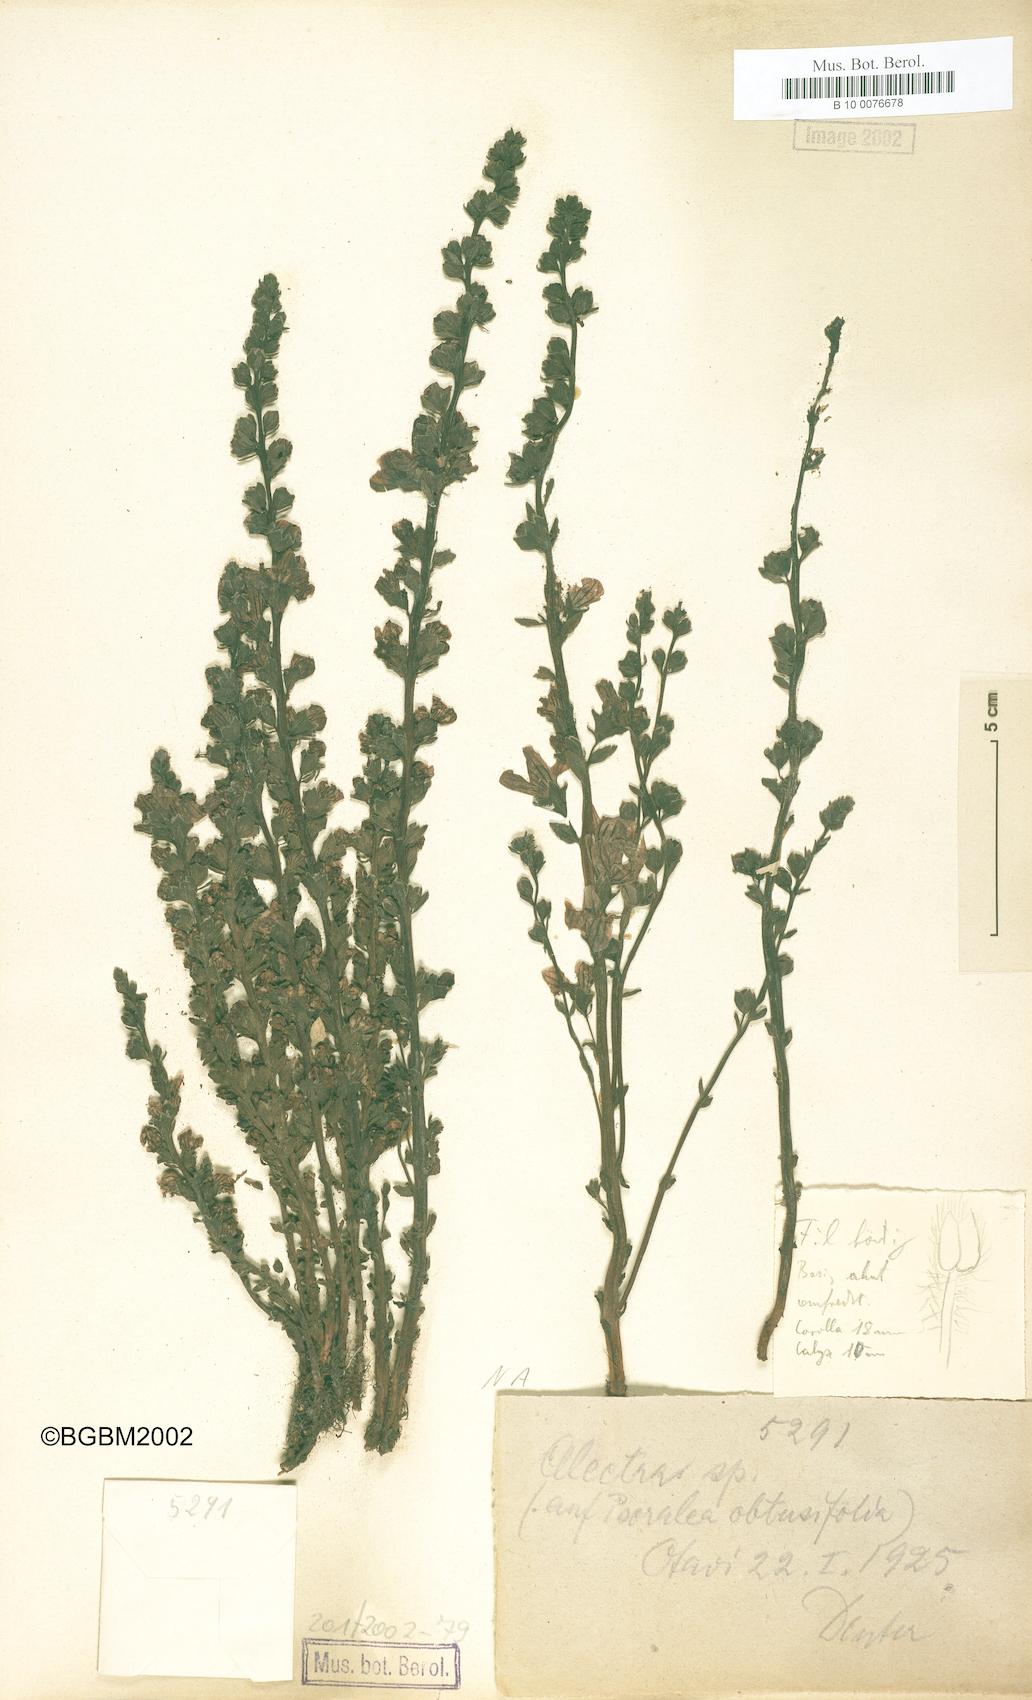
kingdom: Plantae
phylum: Tracheophyta
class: Magnoliopsida
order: Lamiales
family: Orobanchaceae
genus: Alectra
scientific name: Alectra
